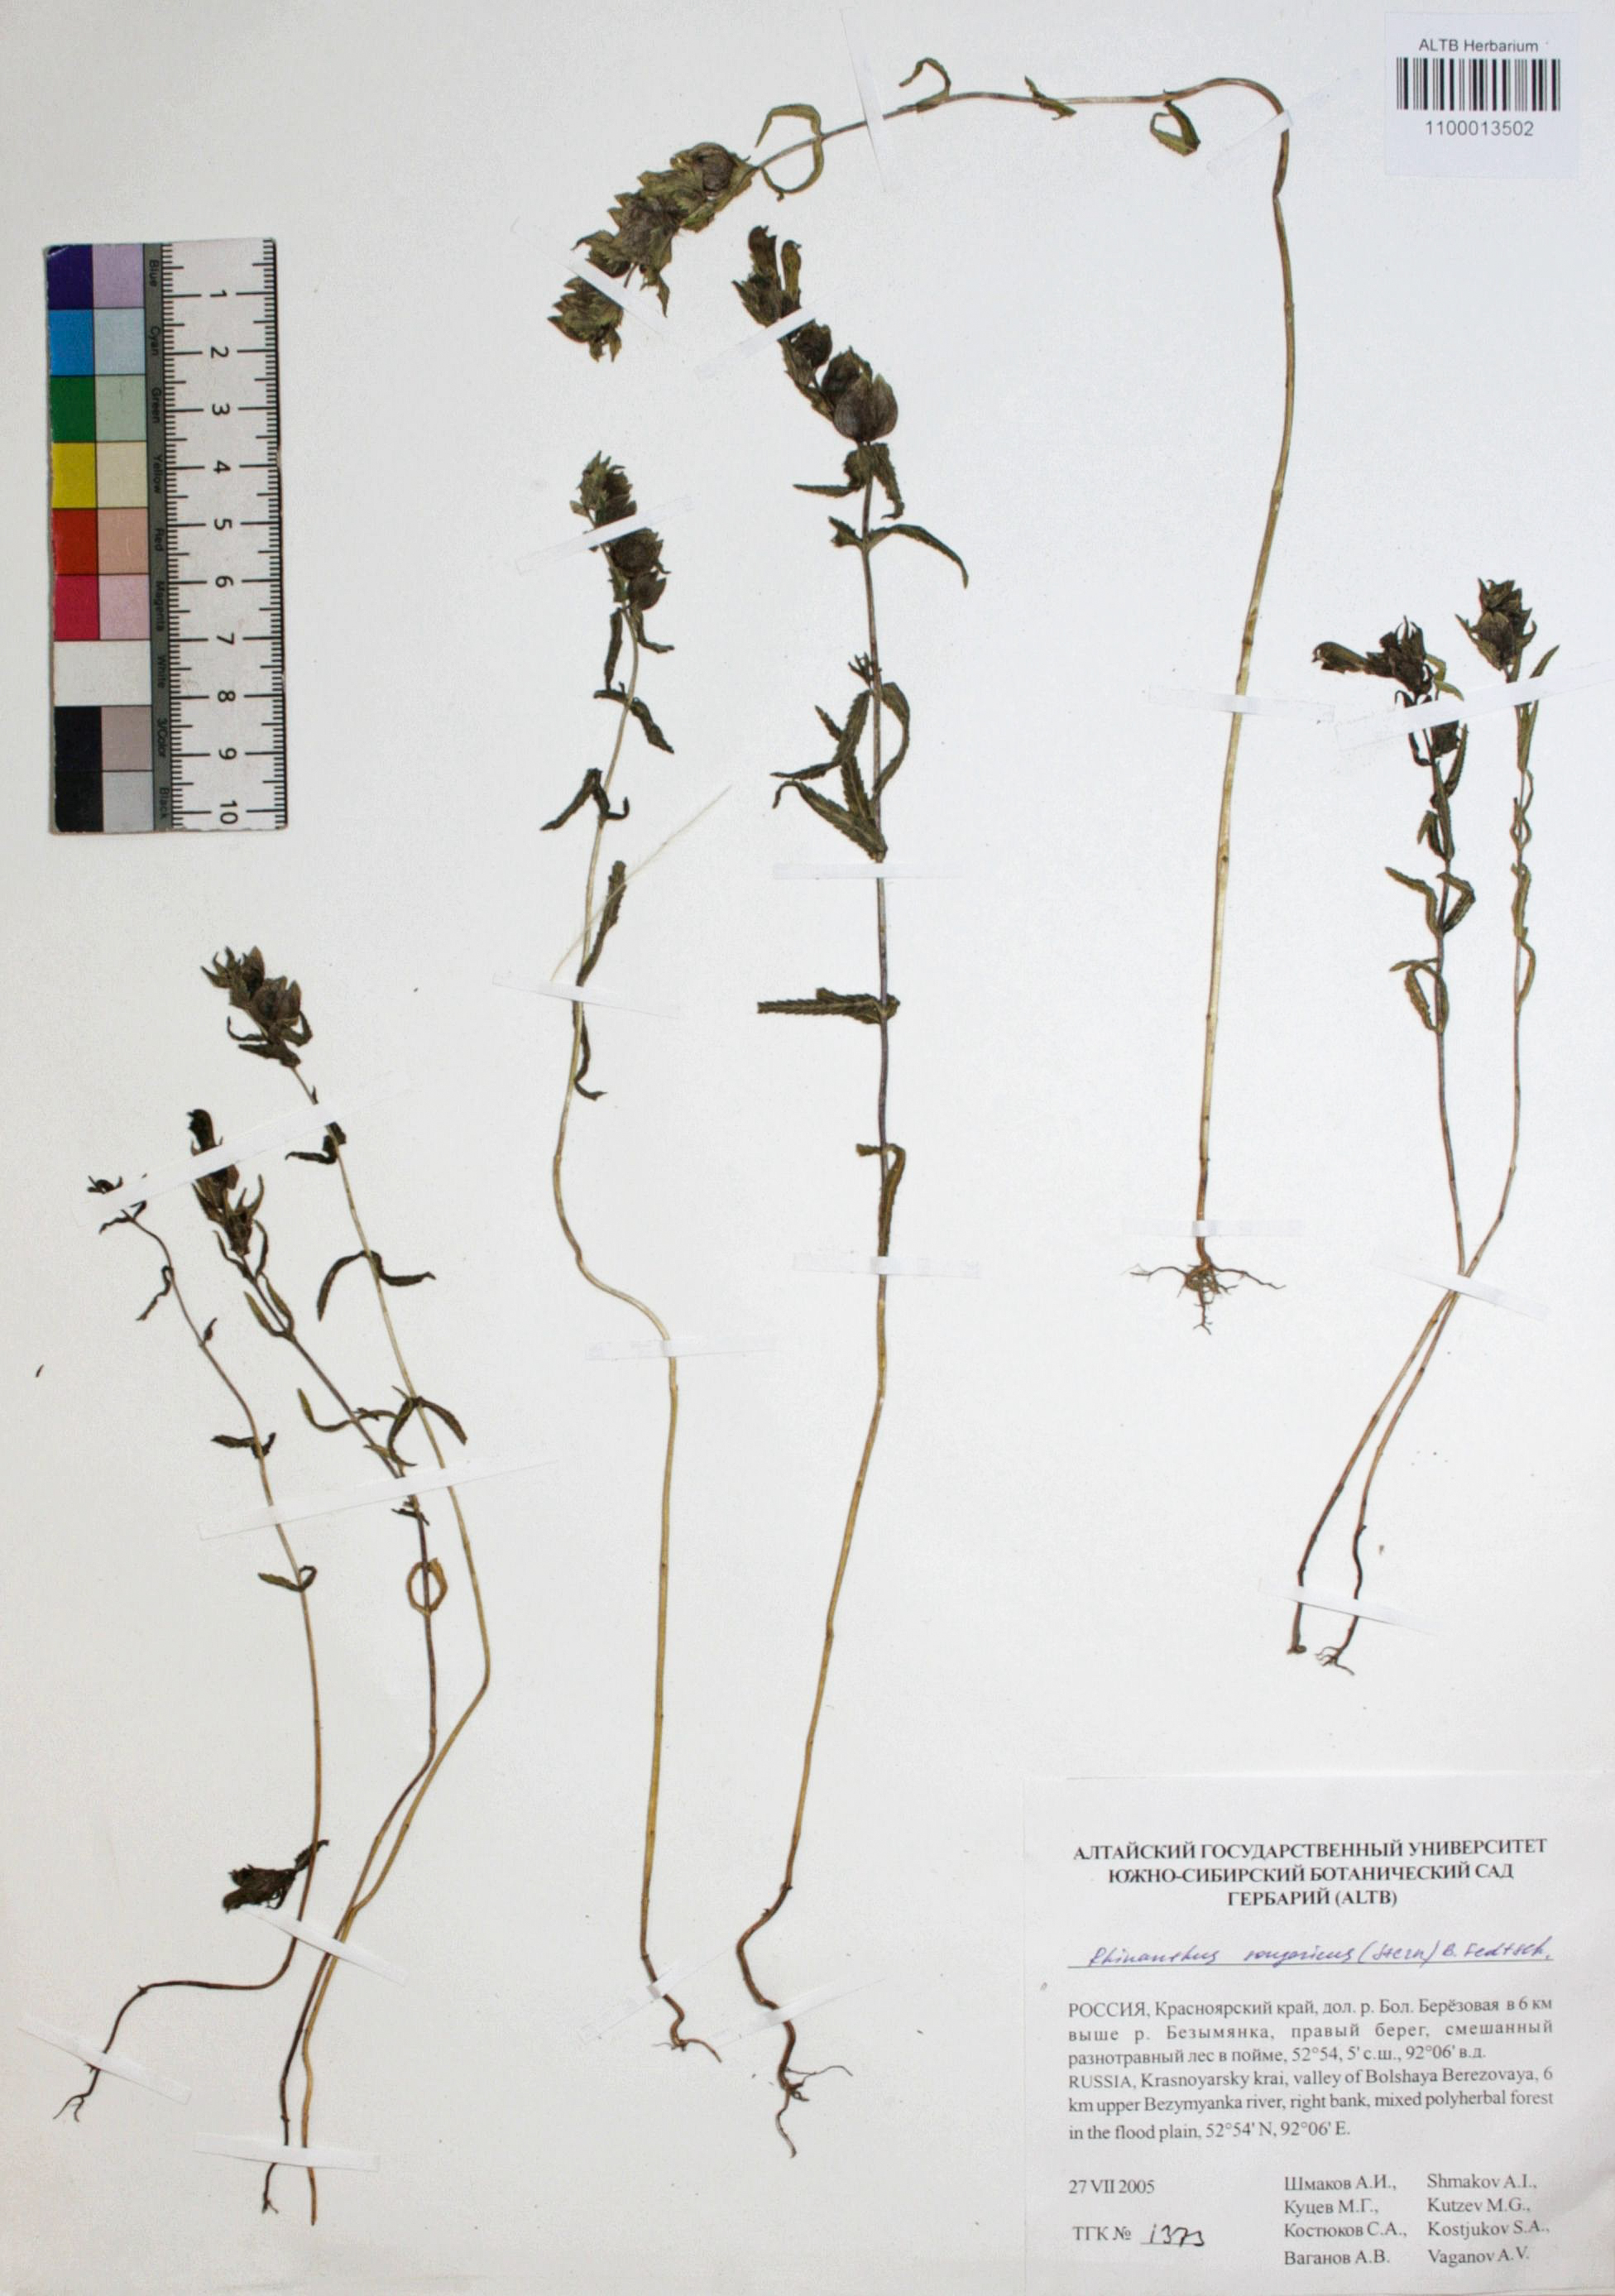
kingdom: Plantae
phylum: Tracheophyta
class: Magnoliopsida
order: Lamiales
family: Orobanchaceae
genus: Rhinanthus
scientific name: Rhinanthus songaricus
